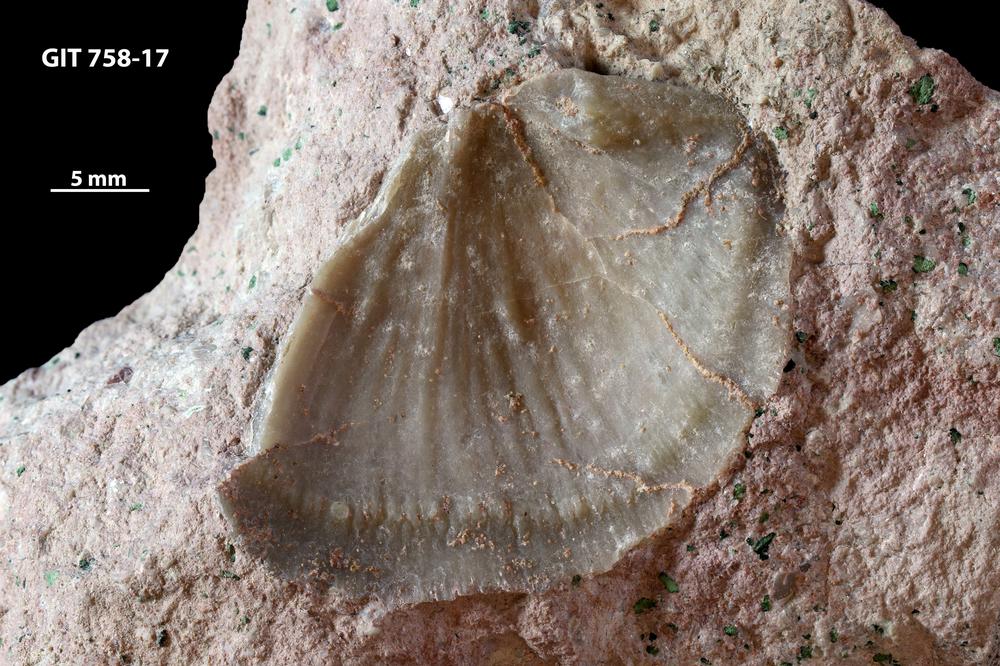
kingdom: Animalia
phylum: Brachiopoda
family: Gonambonitidae
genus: Antigonambonites
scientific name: Antigonambonites aequistriatus
